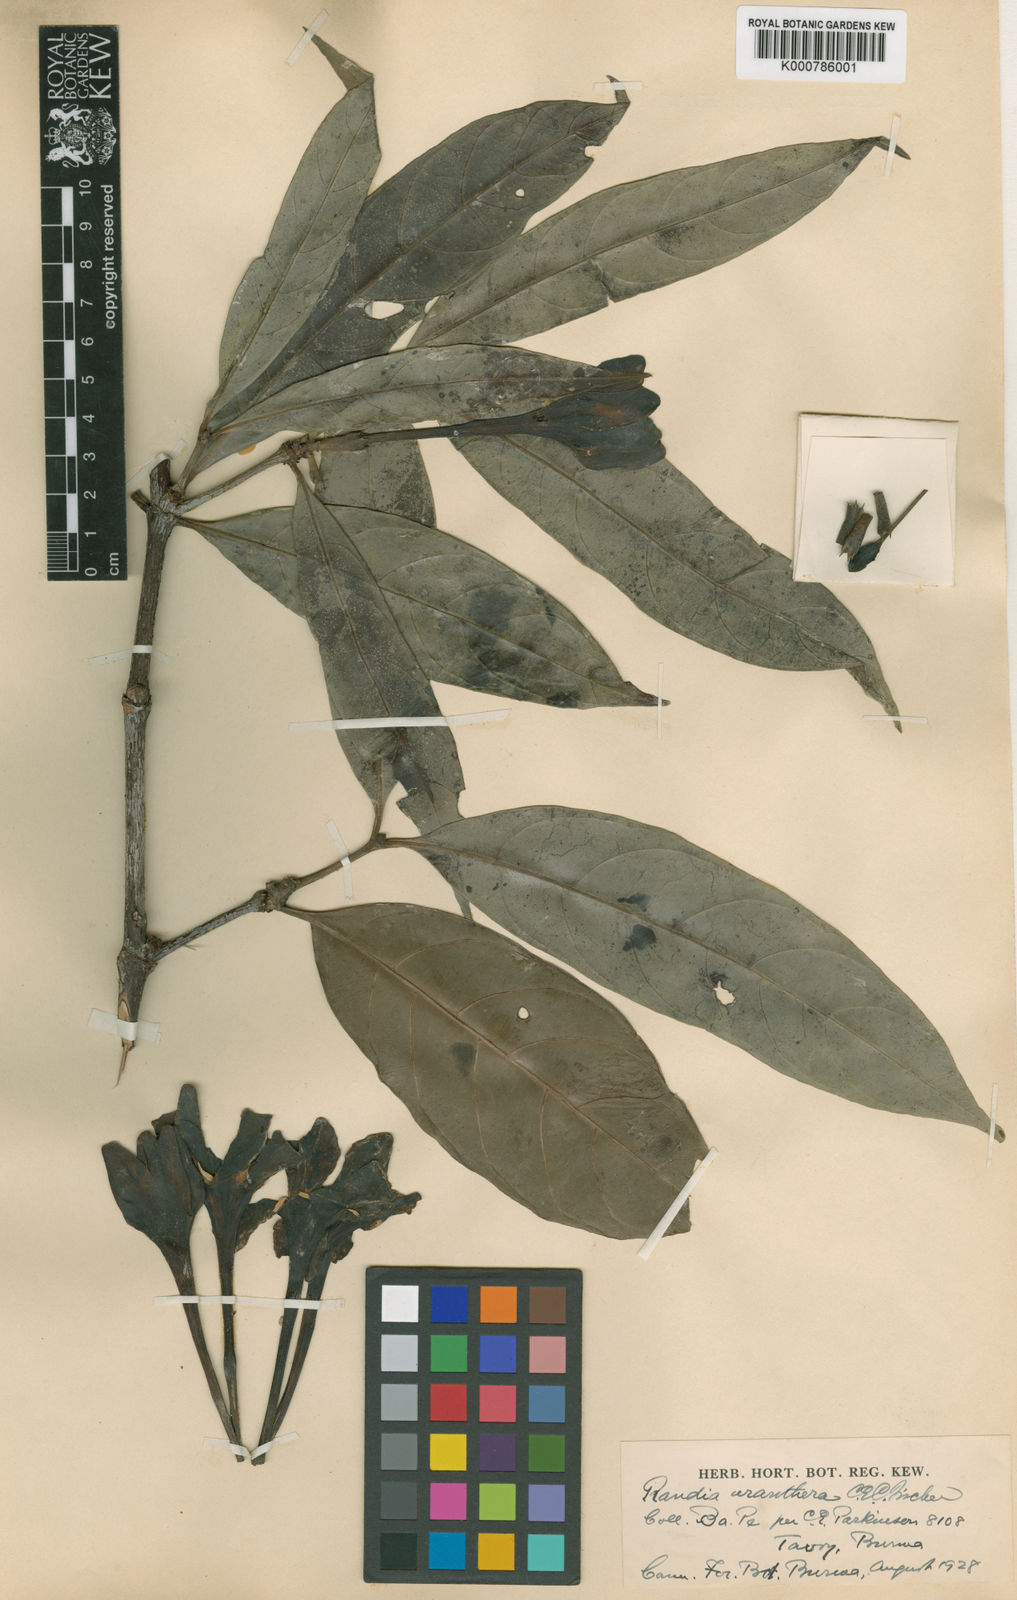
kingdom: Plantae
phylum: Tracheophyta
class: Magnoliopsida
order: Gentianales
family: Rubiaceae
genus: Ridsdalea
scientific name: Ridsdalea uranthera
